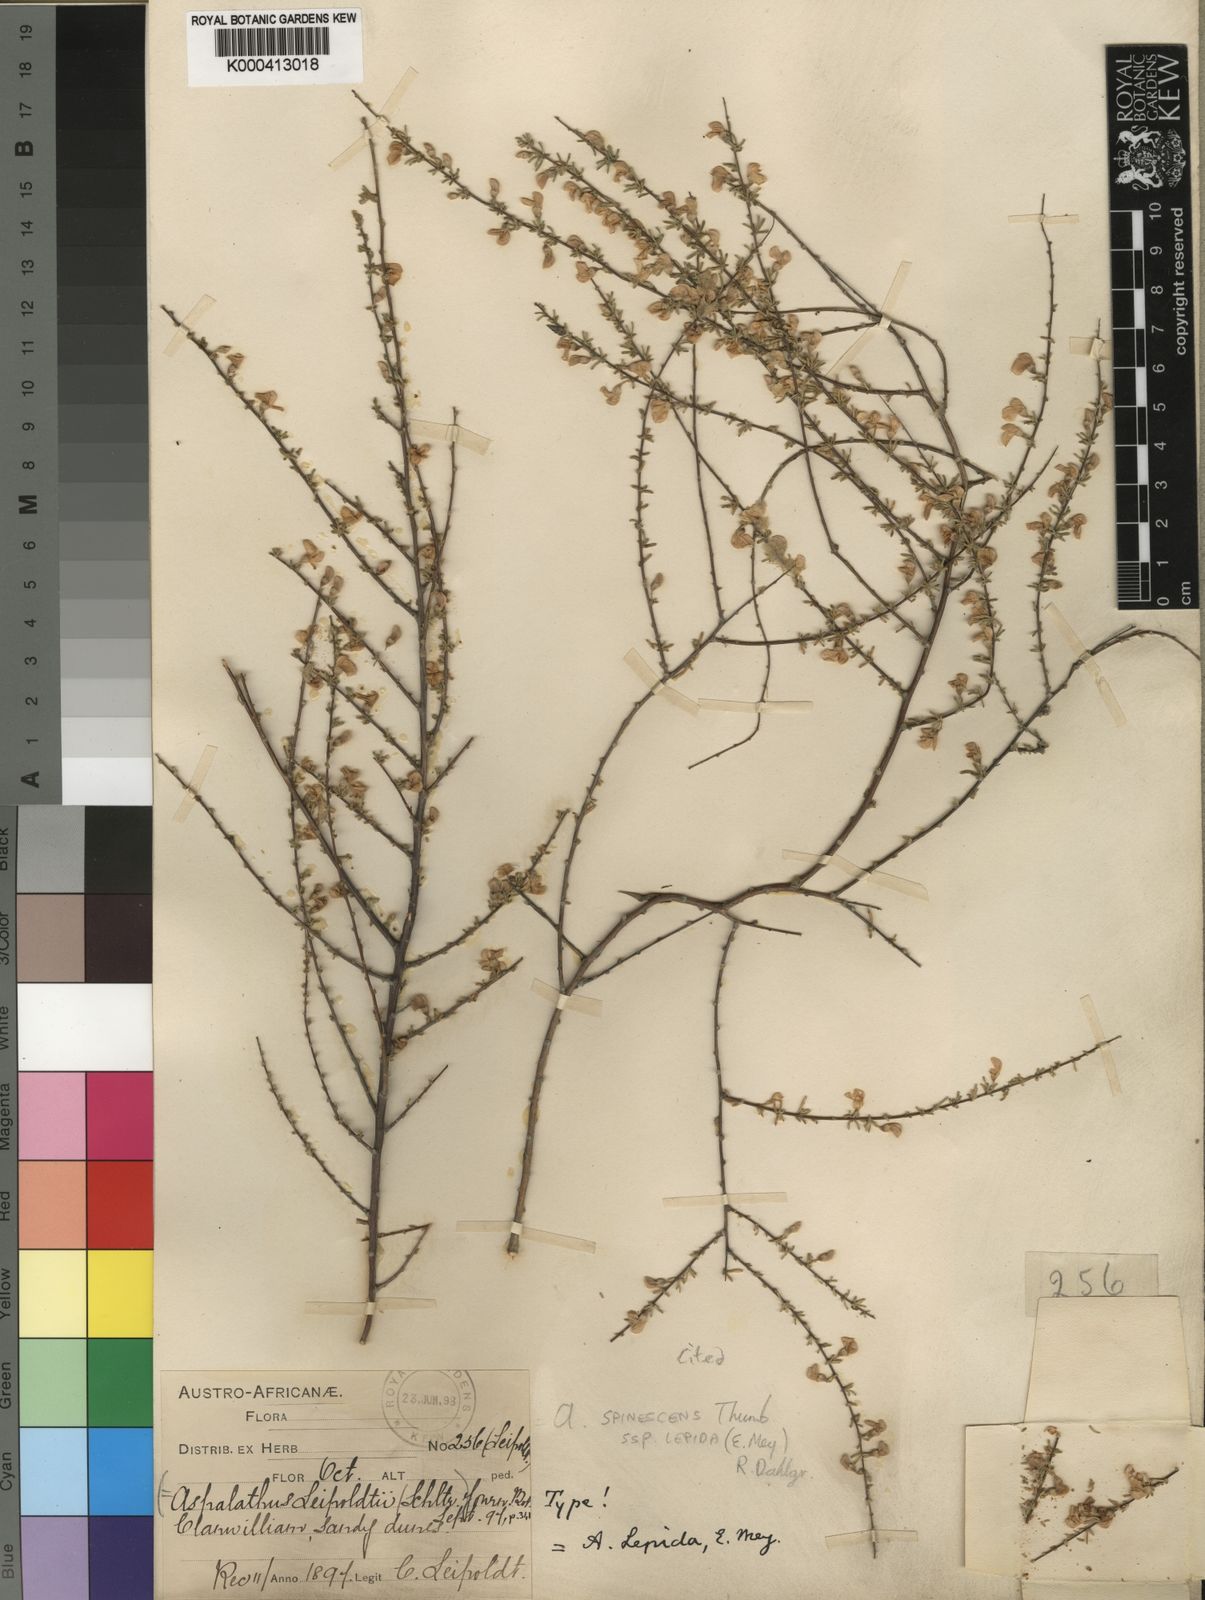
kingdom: Plantae
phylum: Tracheophyta
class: Magnoliopsida
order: Fabales
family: Fabaceae
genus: Aspalathus
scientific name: Aspalathus spinescens
